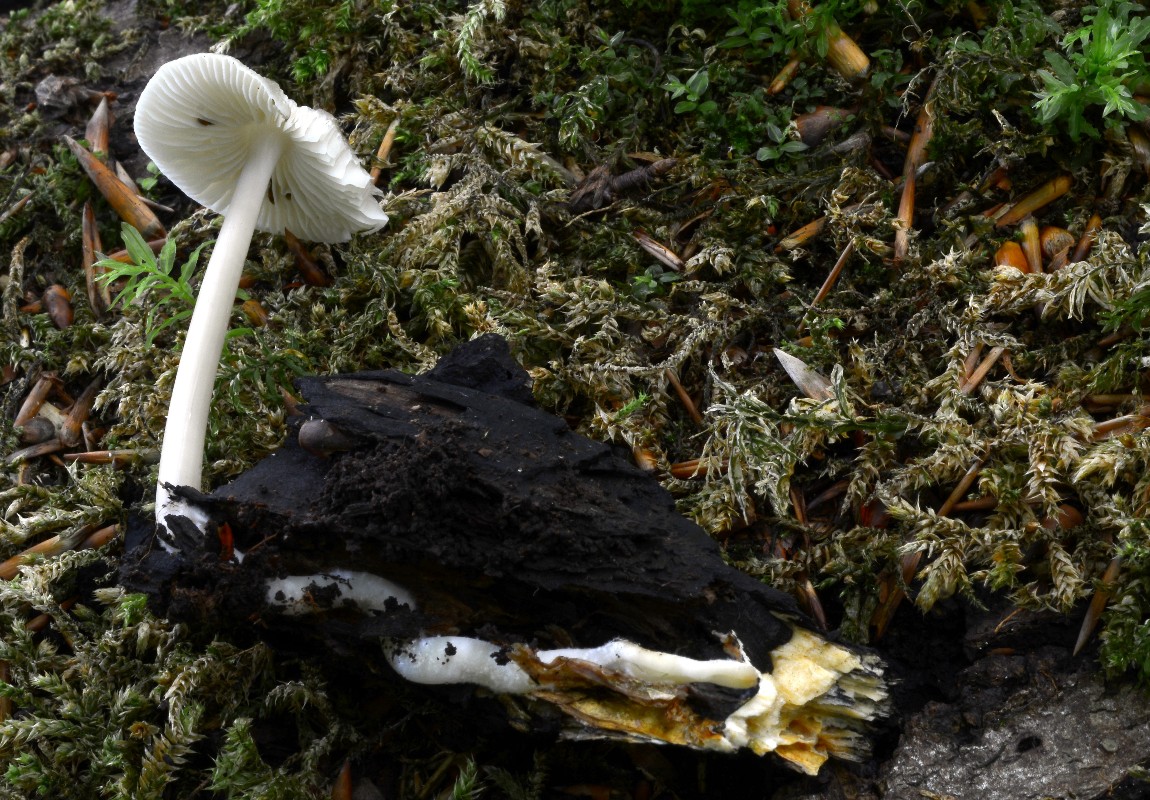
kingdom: Fungi
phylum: Basidiomycota
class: Agaricomycetes
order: Agaricales
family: Mycenaceae
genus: Mycena
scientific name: Mycena galericulata
